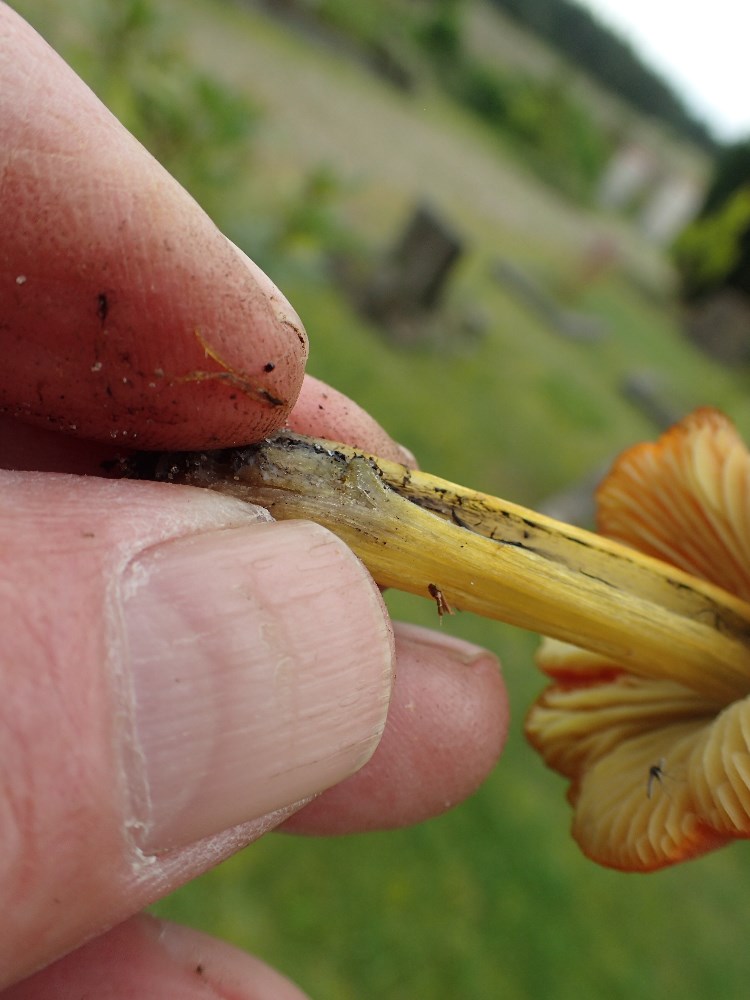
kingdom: Fungi
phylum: Basidiomycota
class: Agaricomycetes
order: Agaricales
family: Hygrophoraceae
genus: Hygrocybe
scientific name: Hygrocybe conica
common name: kegle-vokshat
